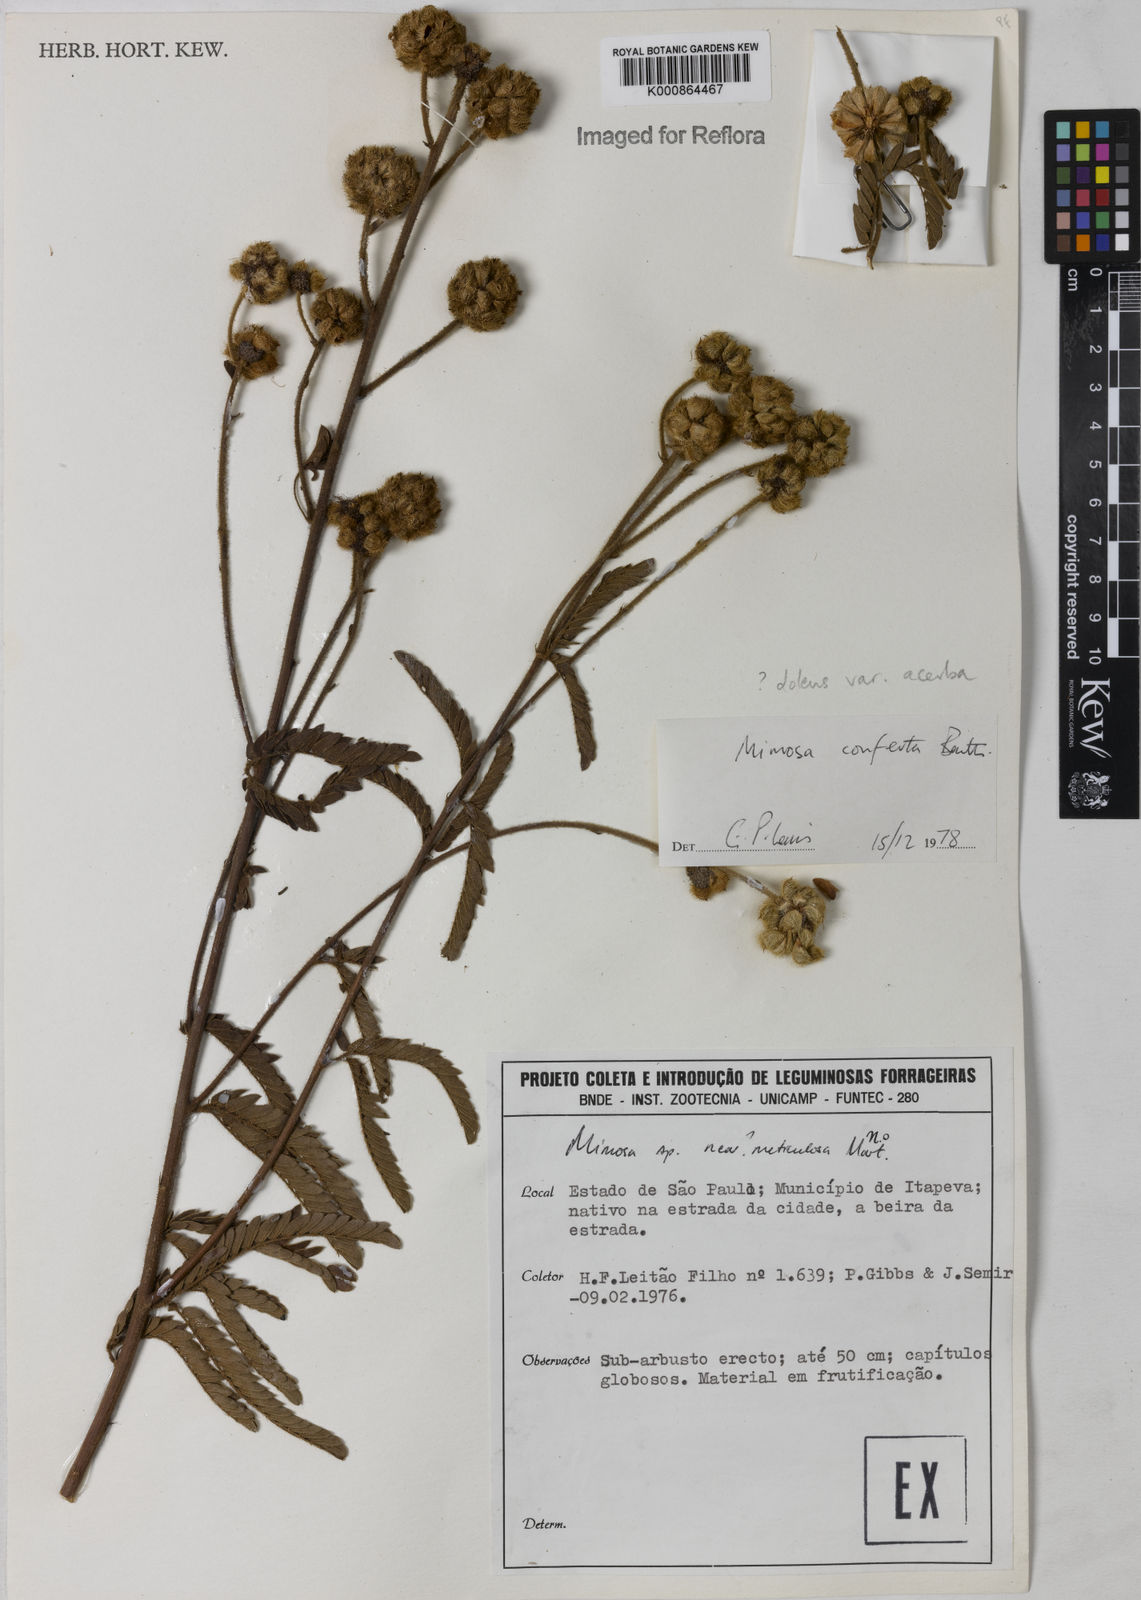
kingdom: Plantae
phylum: Tracheophyta
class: Magnoliopsida
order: Fabales
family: Fabaceae
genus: Mimosa
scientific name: Mimosa dolens
